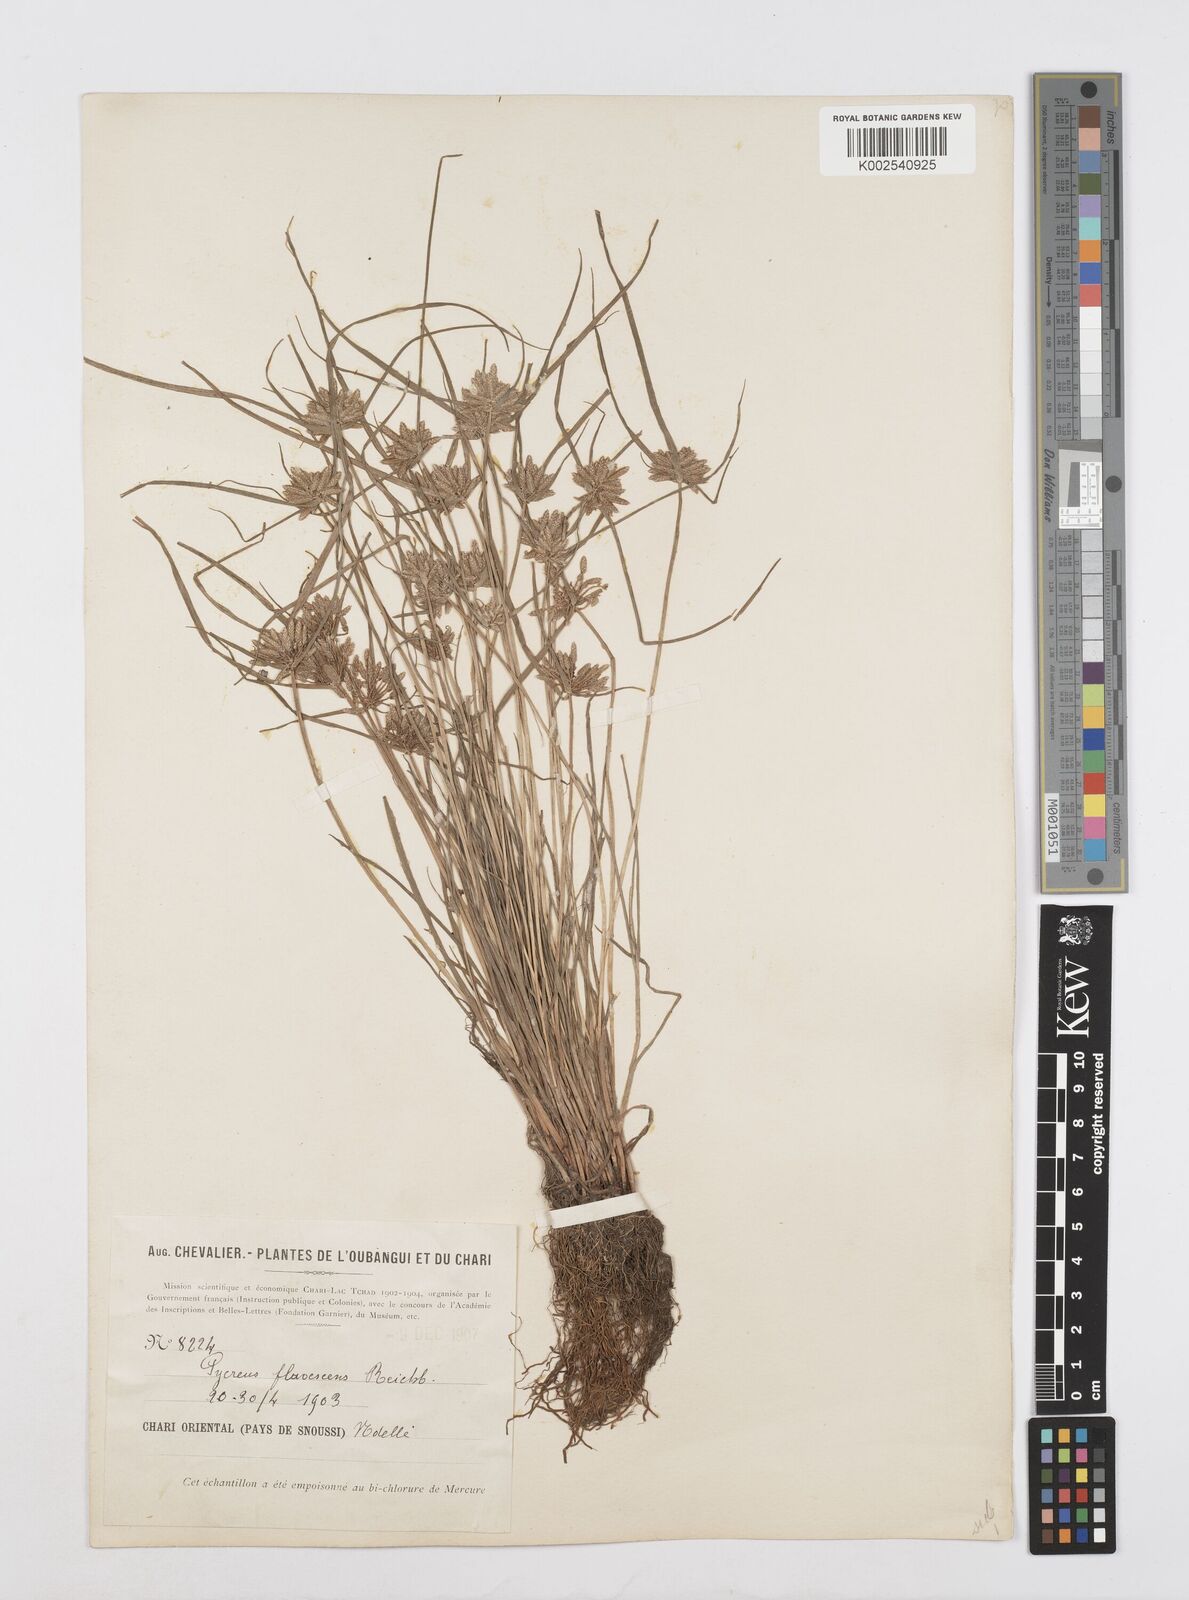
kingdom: Plantae
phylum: Tracheophyta
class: Liliopsida
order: Poales
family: Cyperaceae
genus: Cyperus
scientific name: Cyperus flavescens
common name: Yellow galingale
